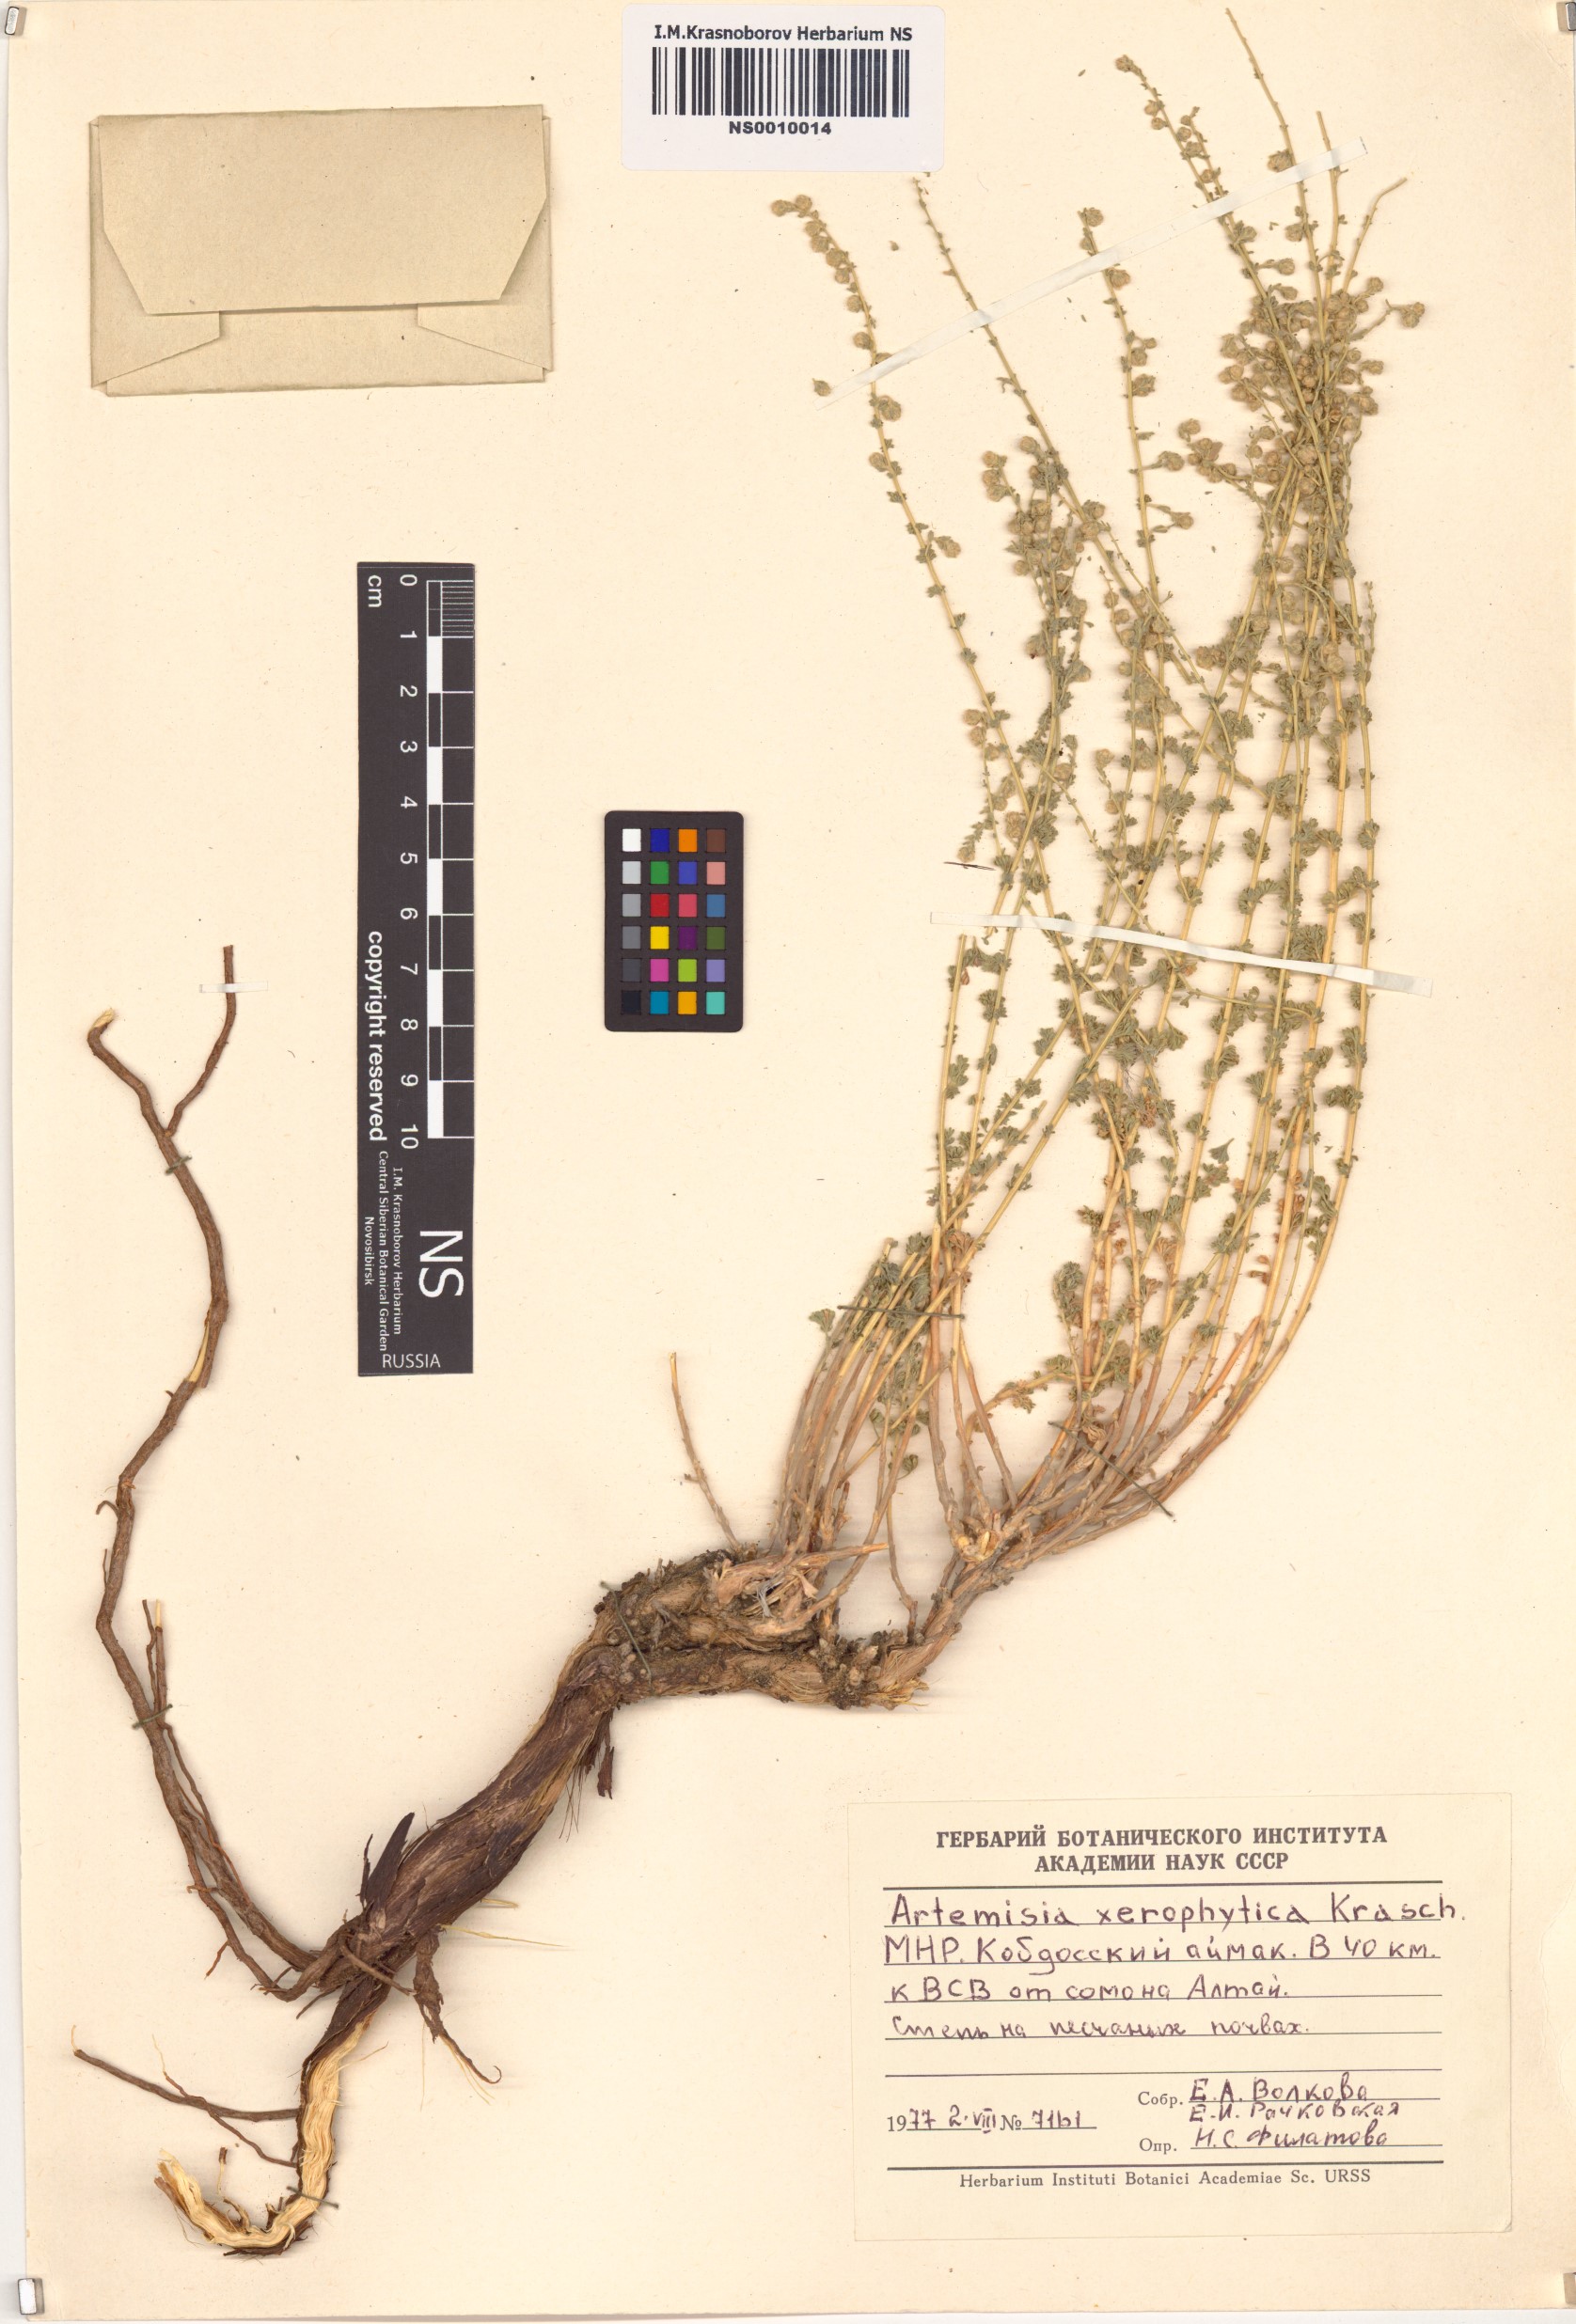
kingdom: Plantae
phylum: Tracheophyta
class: Magnoliopsida
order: Asterales
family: Asteraceae
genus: Artemisia
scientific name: Artemisia xerophytica
